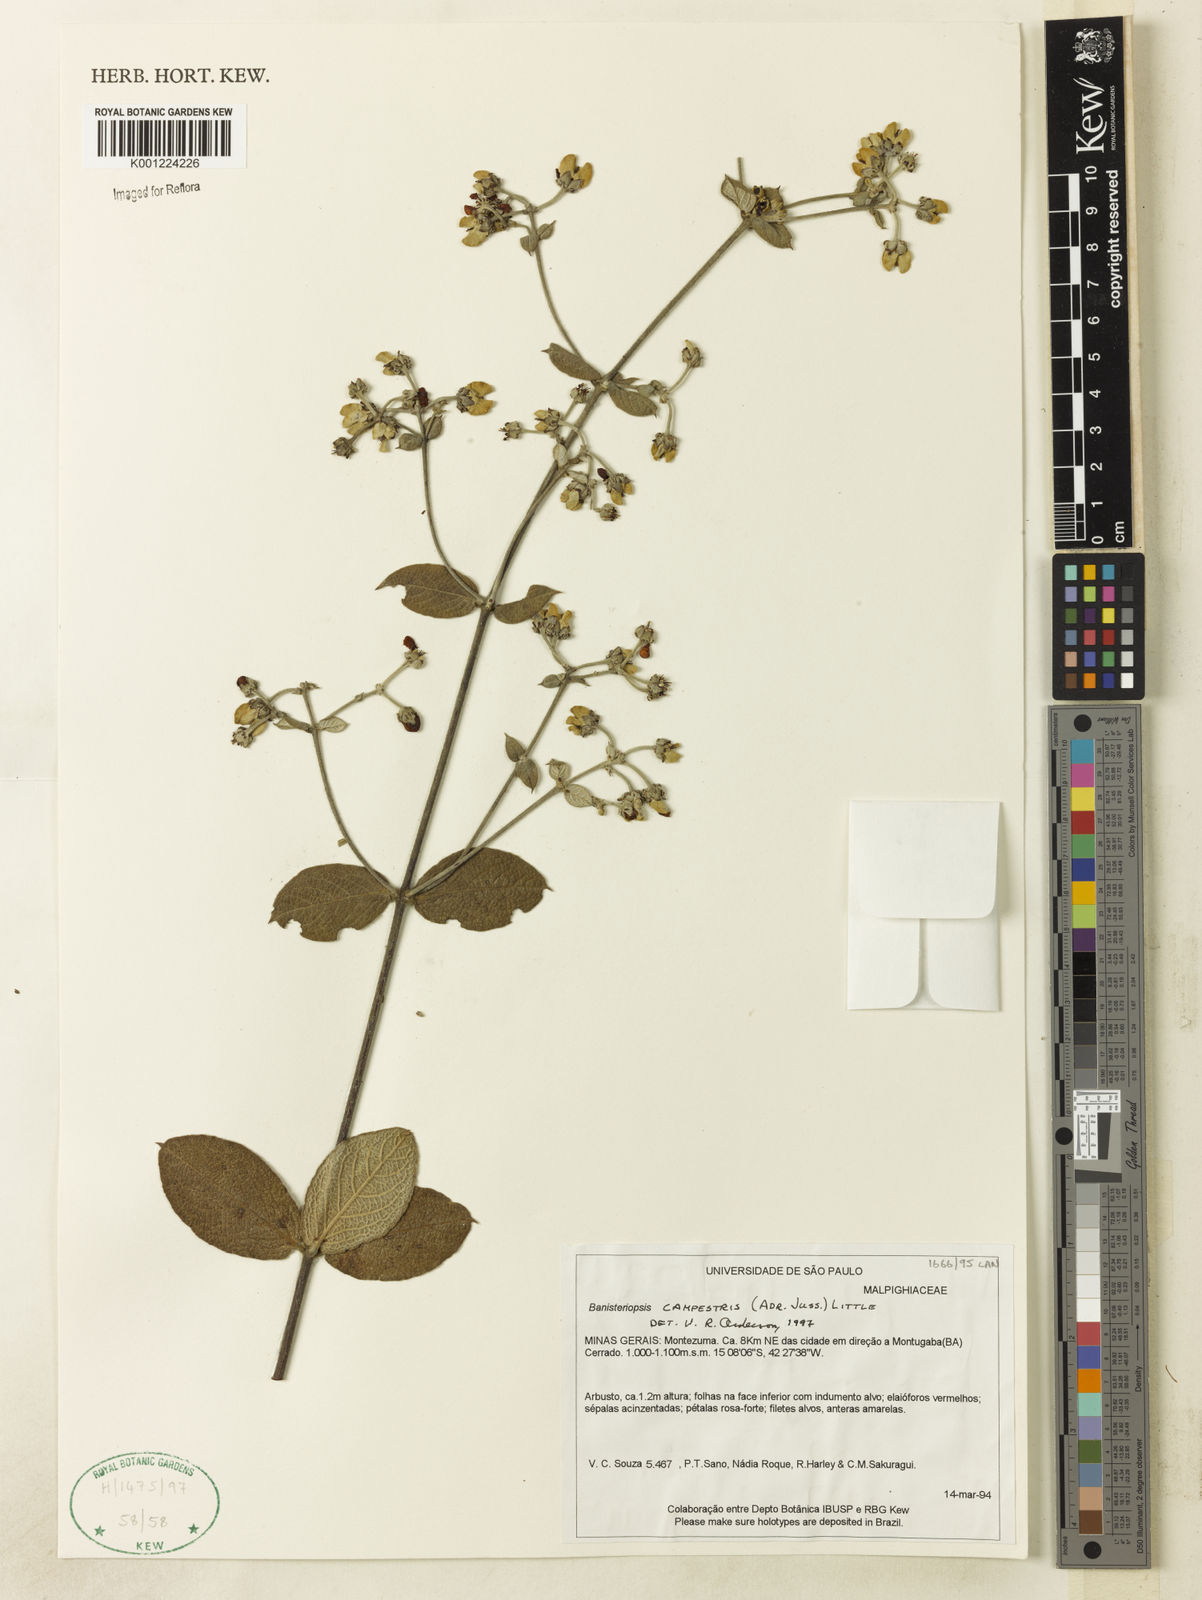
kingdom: Plantae
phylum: Tracheophyta
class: Magnoliopsida
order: Malpighiales
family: Malpighiaceae
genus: Banisteriopsis
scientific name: Banisteriopsis campestris
